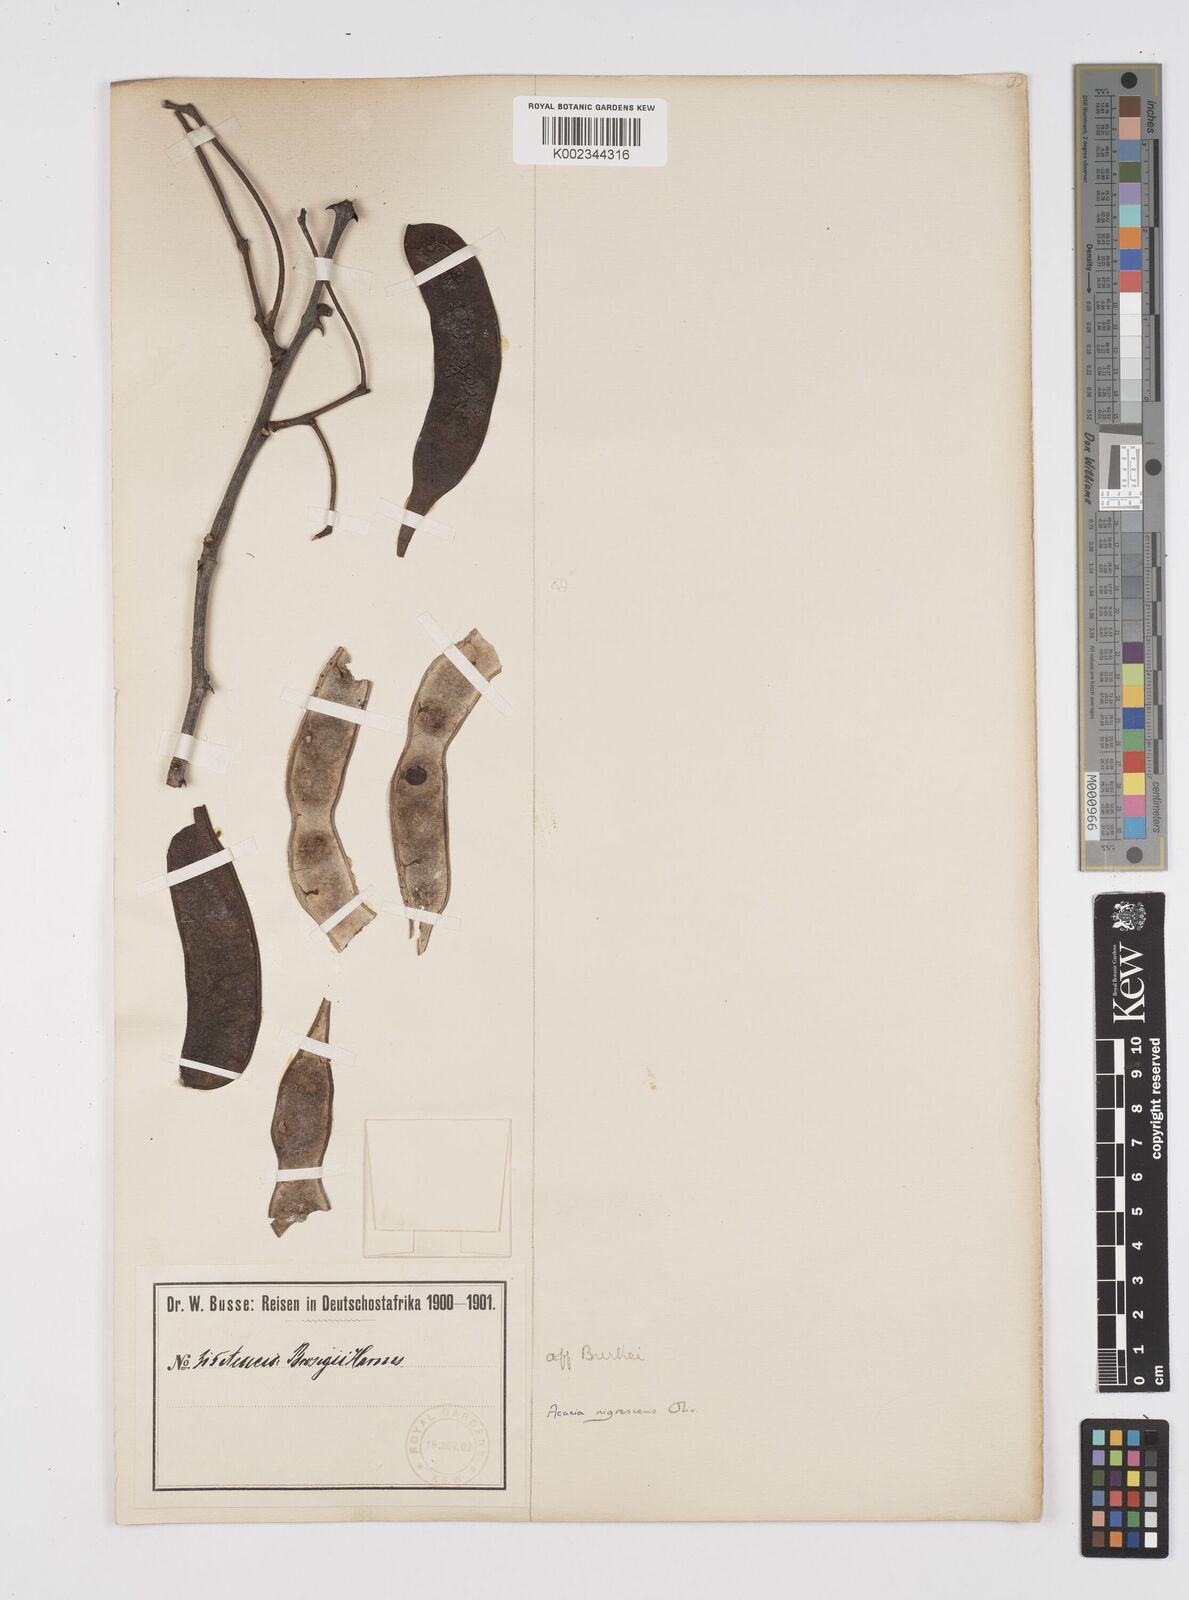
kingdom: Plantae
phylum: Tracheophyta
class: Magnoliopsida
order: Fabales
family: Fabaceae
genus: Senegalia
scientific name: Senegalia nigrescens
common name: Knobthorn
